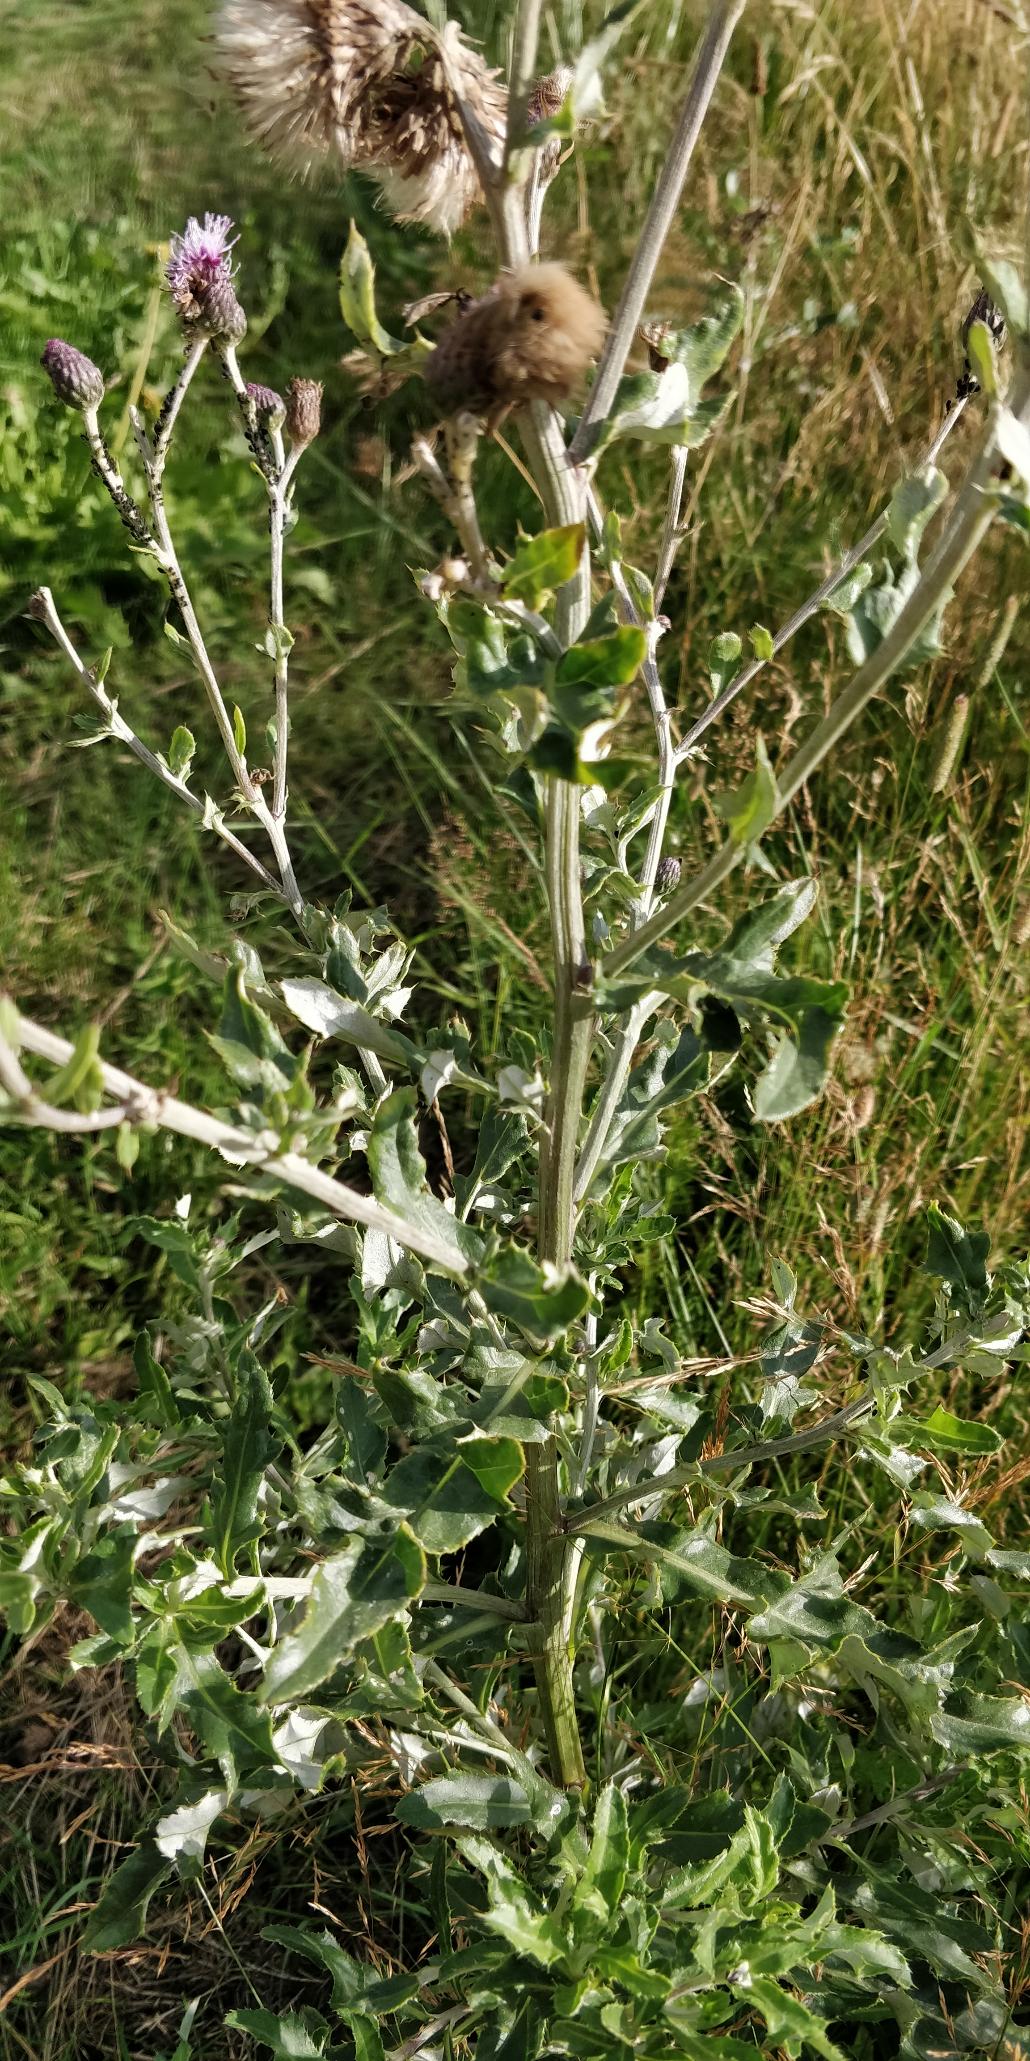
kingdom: Plantae
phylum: Tracheophyta
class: Magnoliopsida
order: Asterales
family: Asteraceae
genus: Cirsium
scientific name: Cirsium arvense
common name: Ager-tidsel
